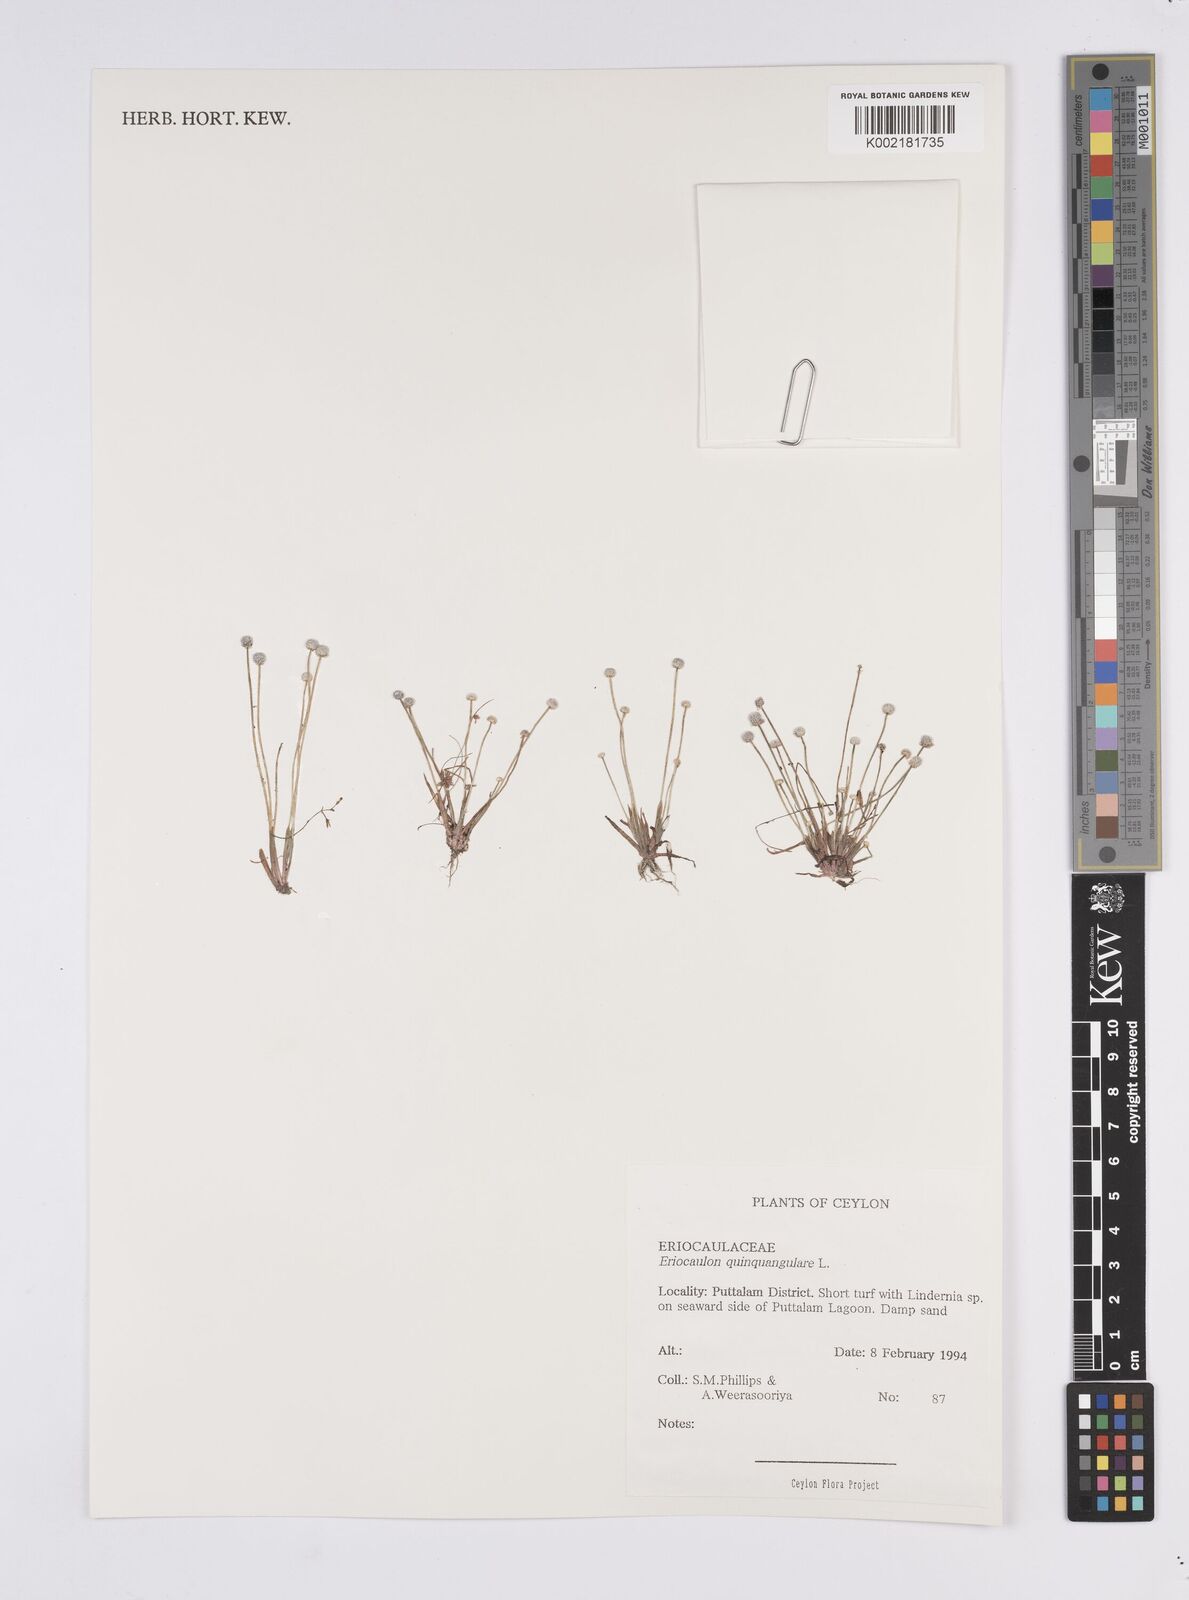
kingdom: Plantae
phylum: Tracheophyta
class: Liliopsida
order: Poales
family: Eriocaulaceae
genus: Eriocaulon
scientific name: Eriocaulon quinquangulare
